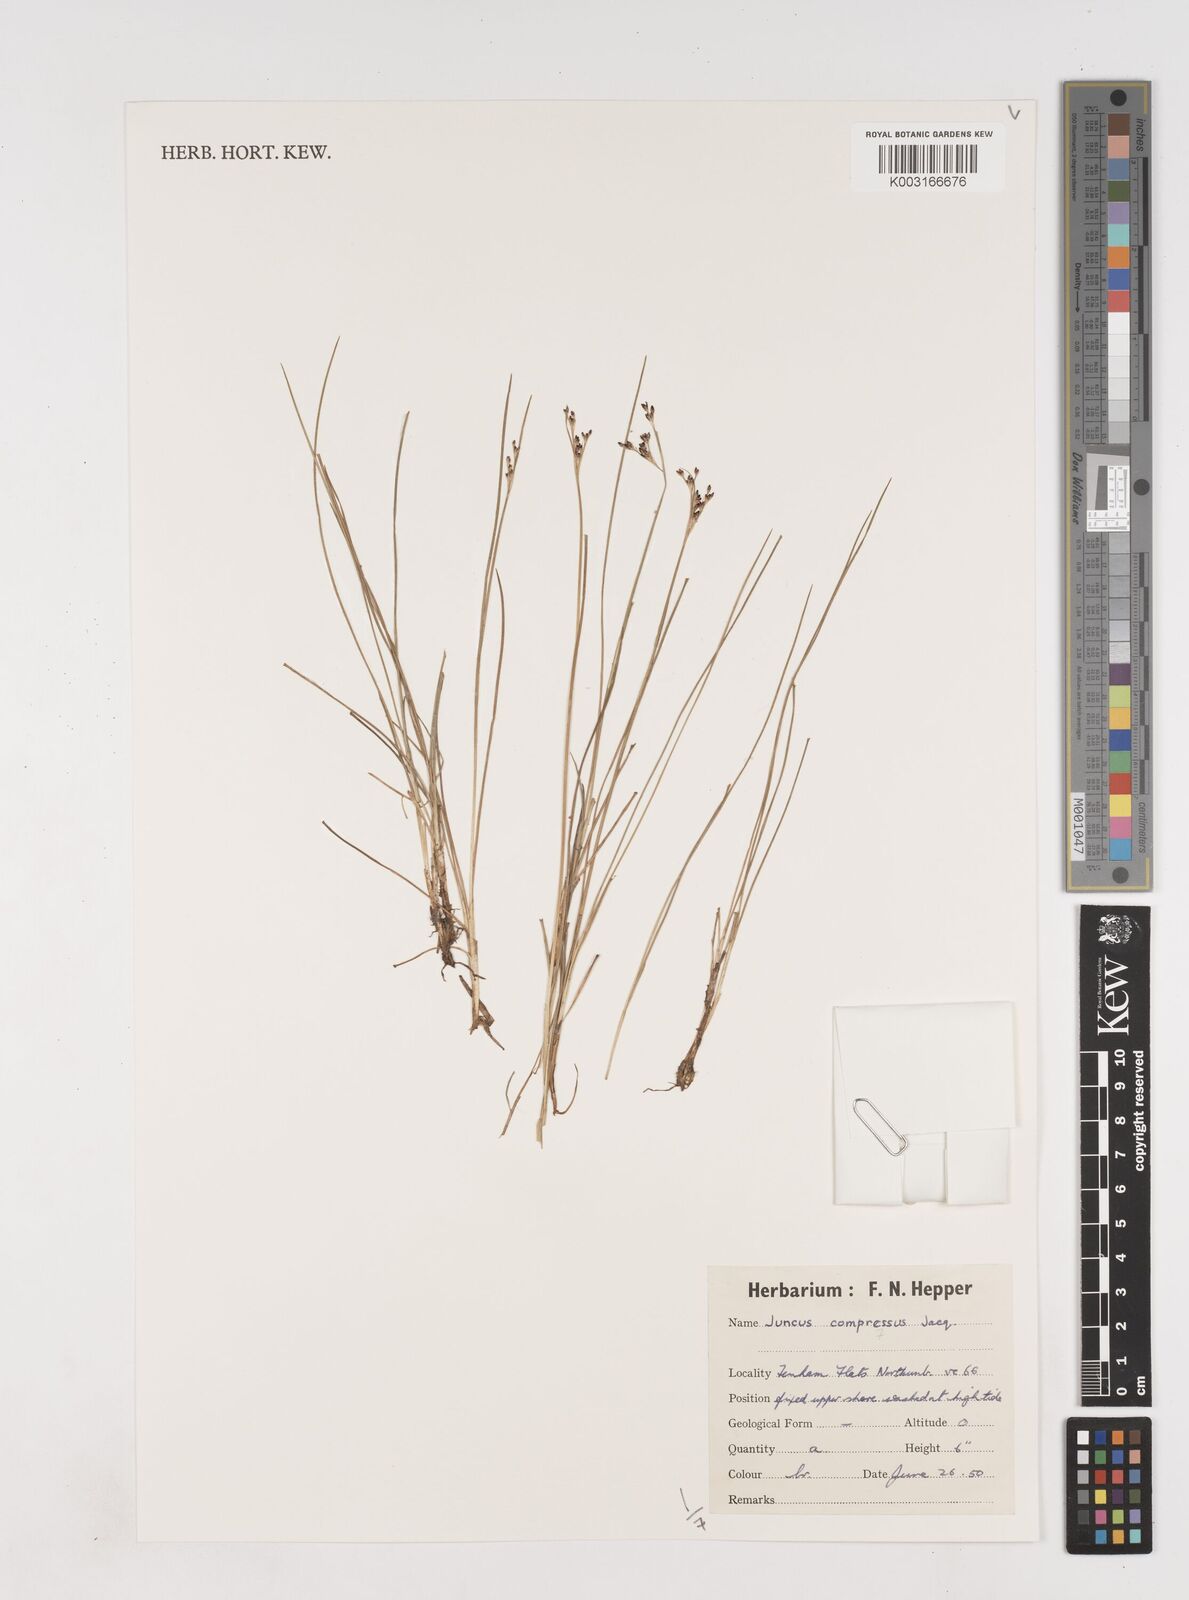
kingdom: Plantae
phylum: Tracheophyta
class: Liliopsida
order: Poales
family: Juncaceae
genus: Juncus
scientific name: Juncus compressus
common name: Round-fruited rush
